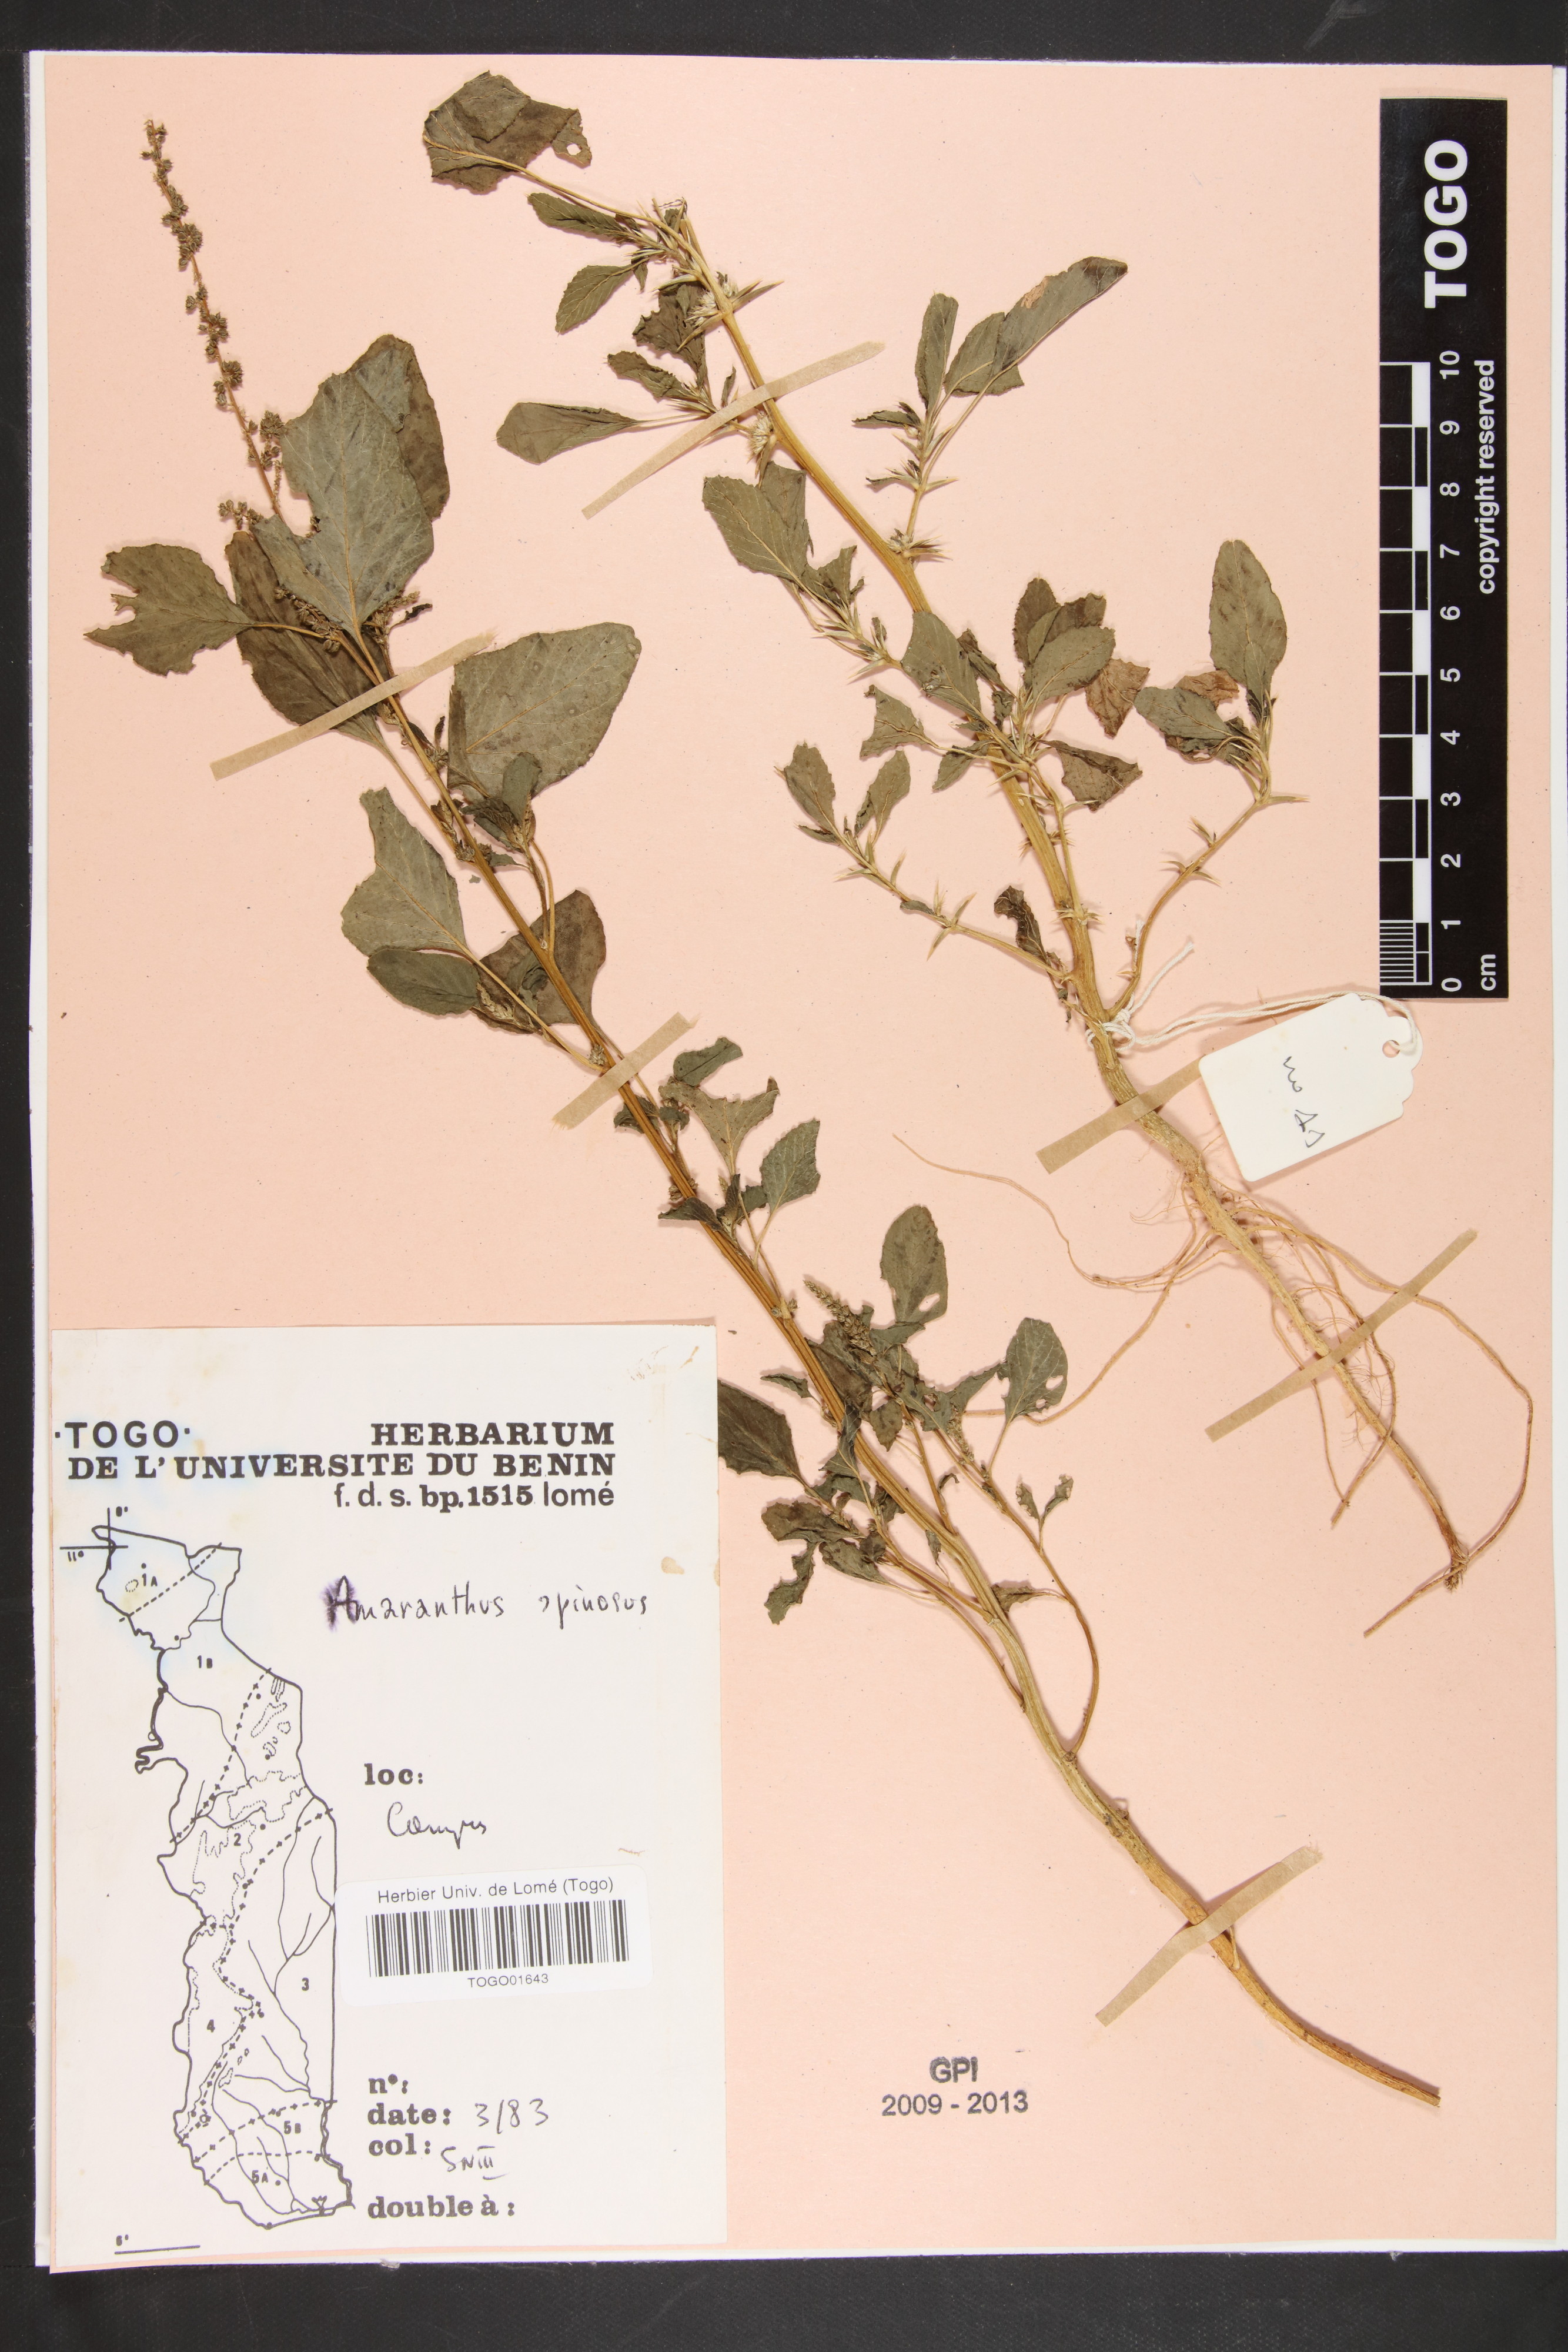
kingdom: Plantae
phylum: Tracheophyta
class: Magnoliopsida
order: Caryophyllales
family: Amaranthaceae
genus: Amaranthus
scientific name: Amaranthus spinosus
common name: Spiny amaranth
